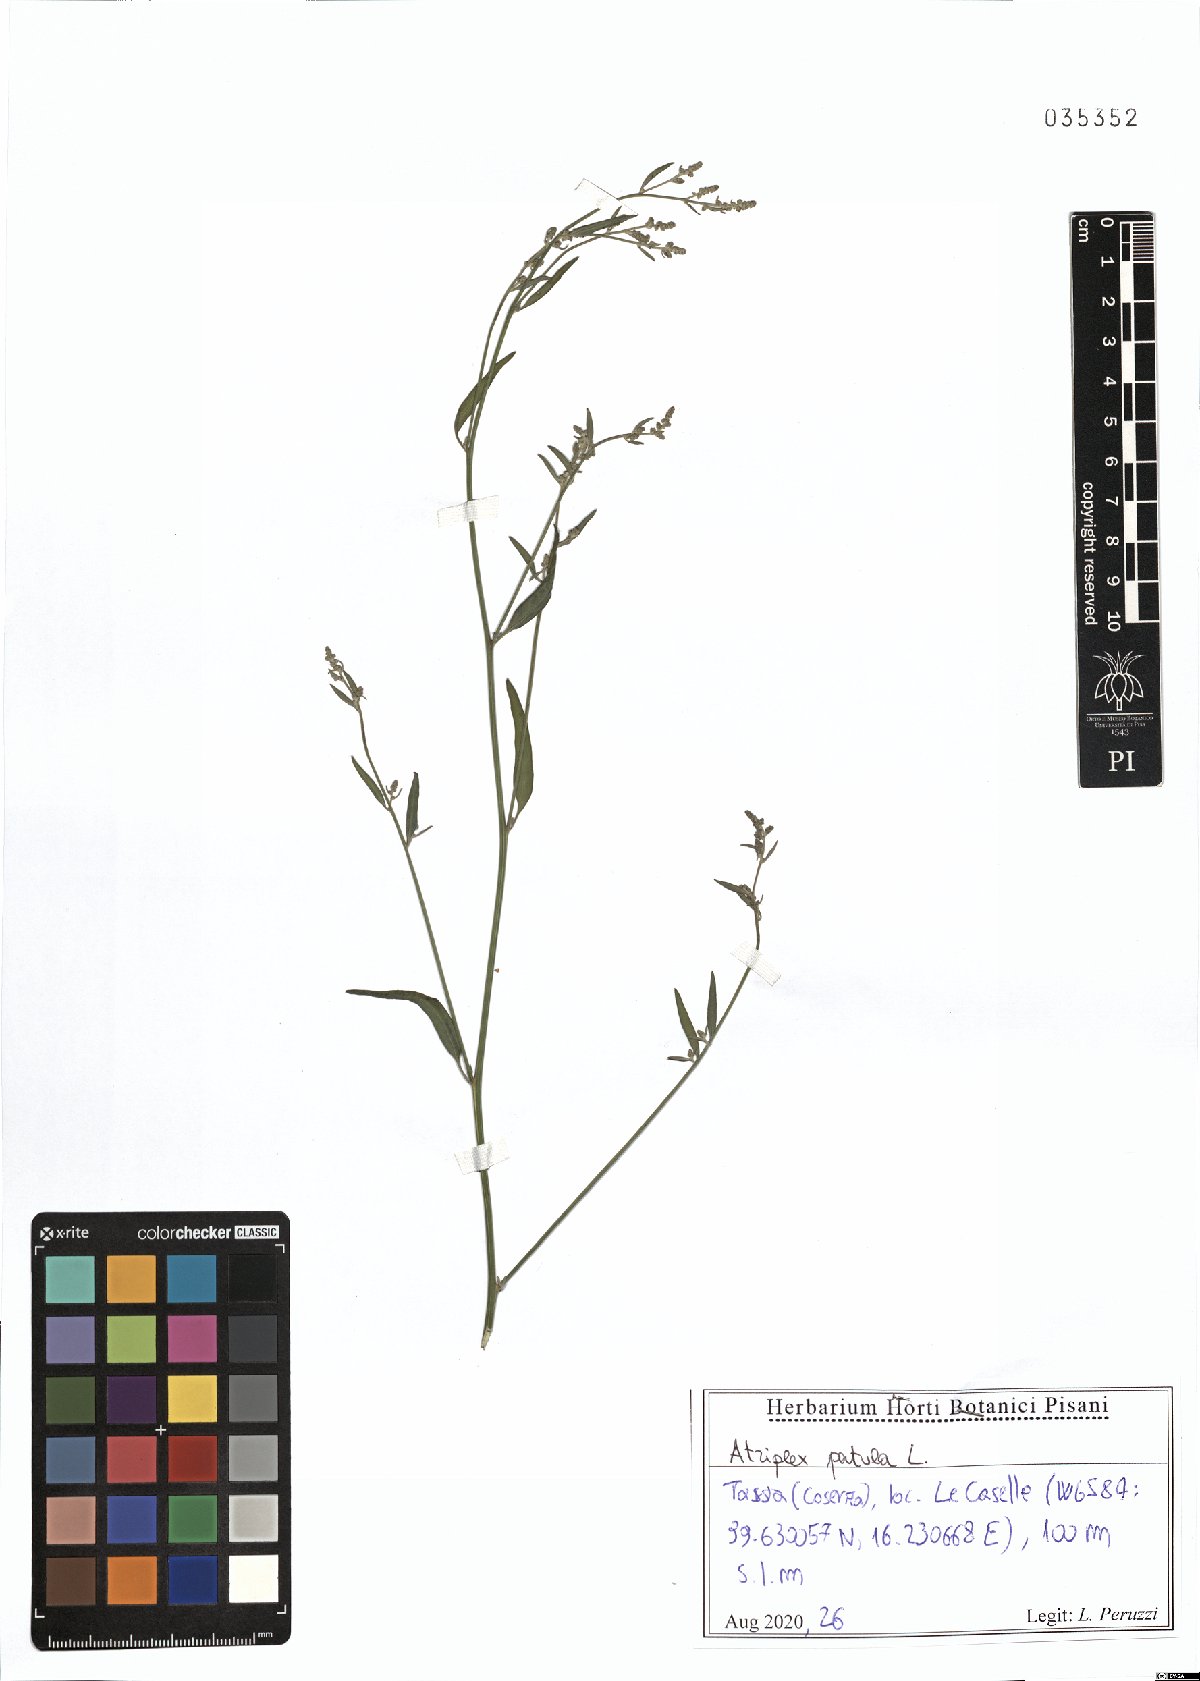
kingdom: Plantae
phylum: Tracheophyta
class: Magnoliopsida
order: Caryophyllales
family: Amaranthaceae
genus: Atriplex
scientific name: Atriplex patula
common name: Common orache
